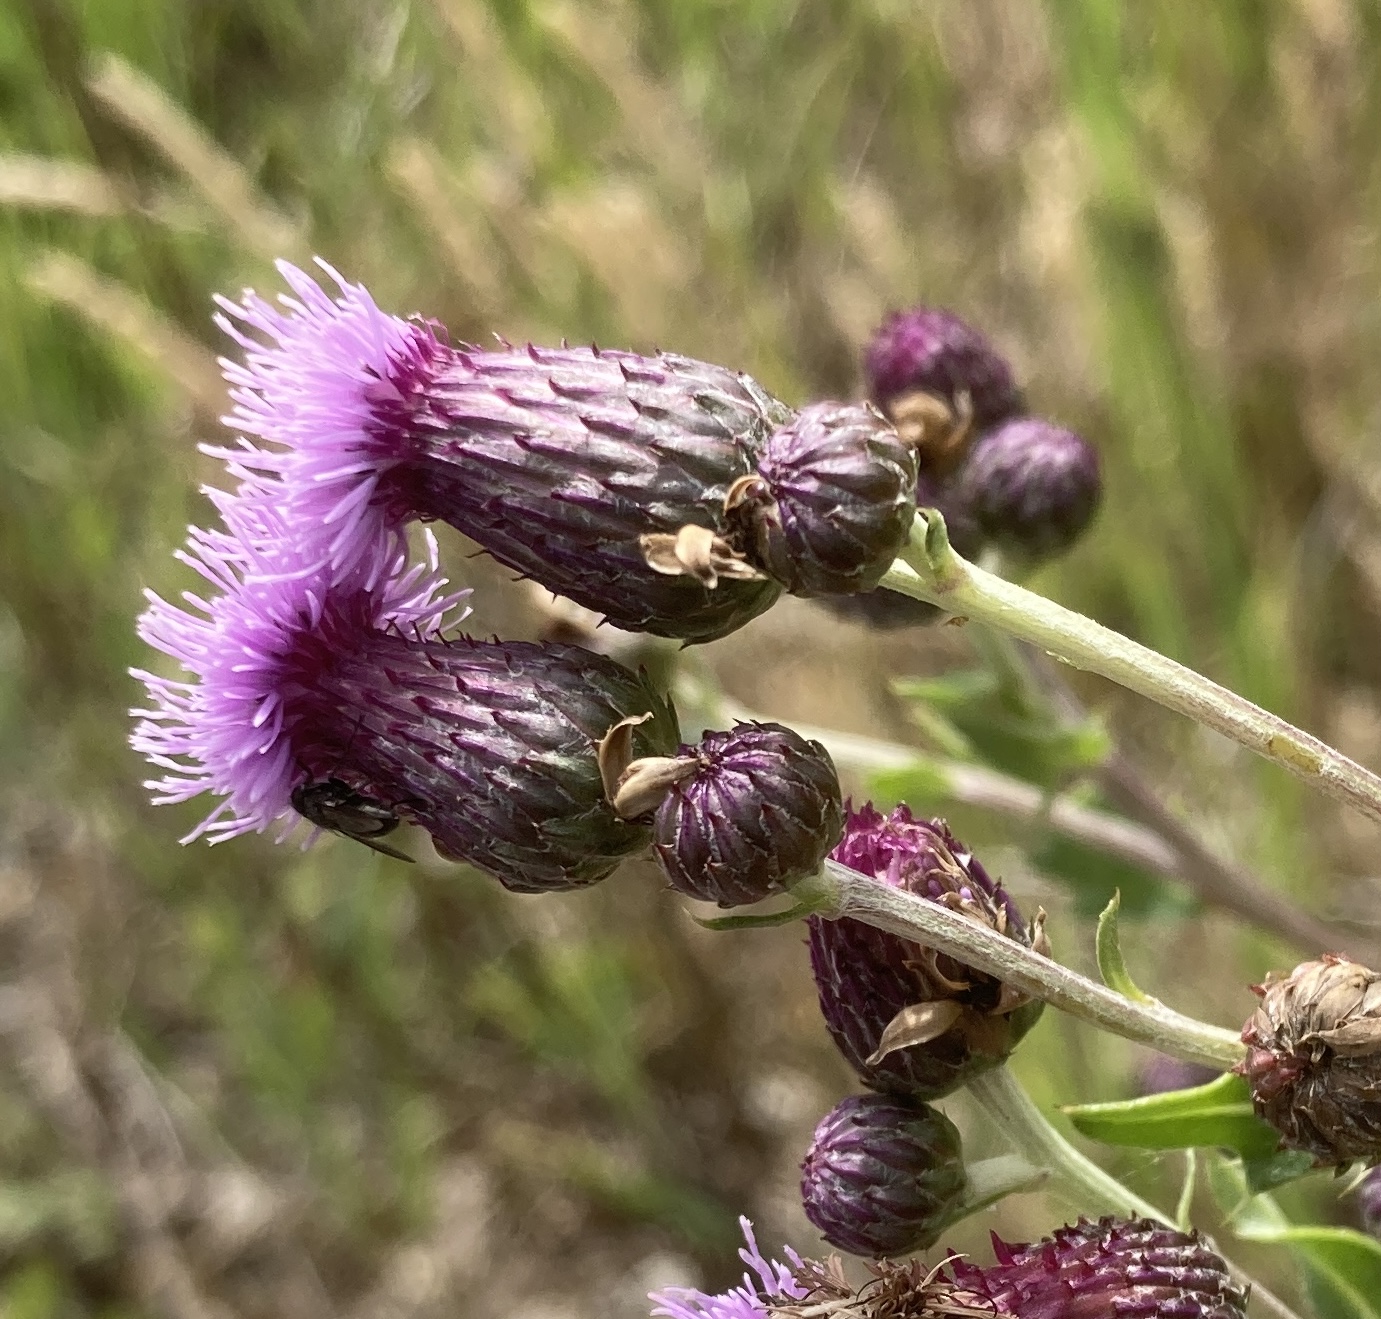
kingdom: Plantae
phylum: Tracheophyta
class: Magnoliopsida
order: Asterales
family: Asteraceae
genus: Cirsium
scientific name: Cirsium arvense
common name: Ager-tidsel
